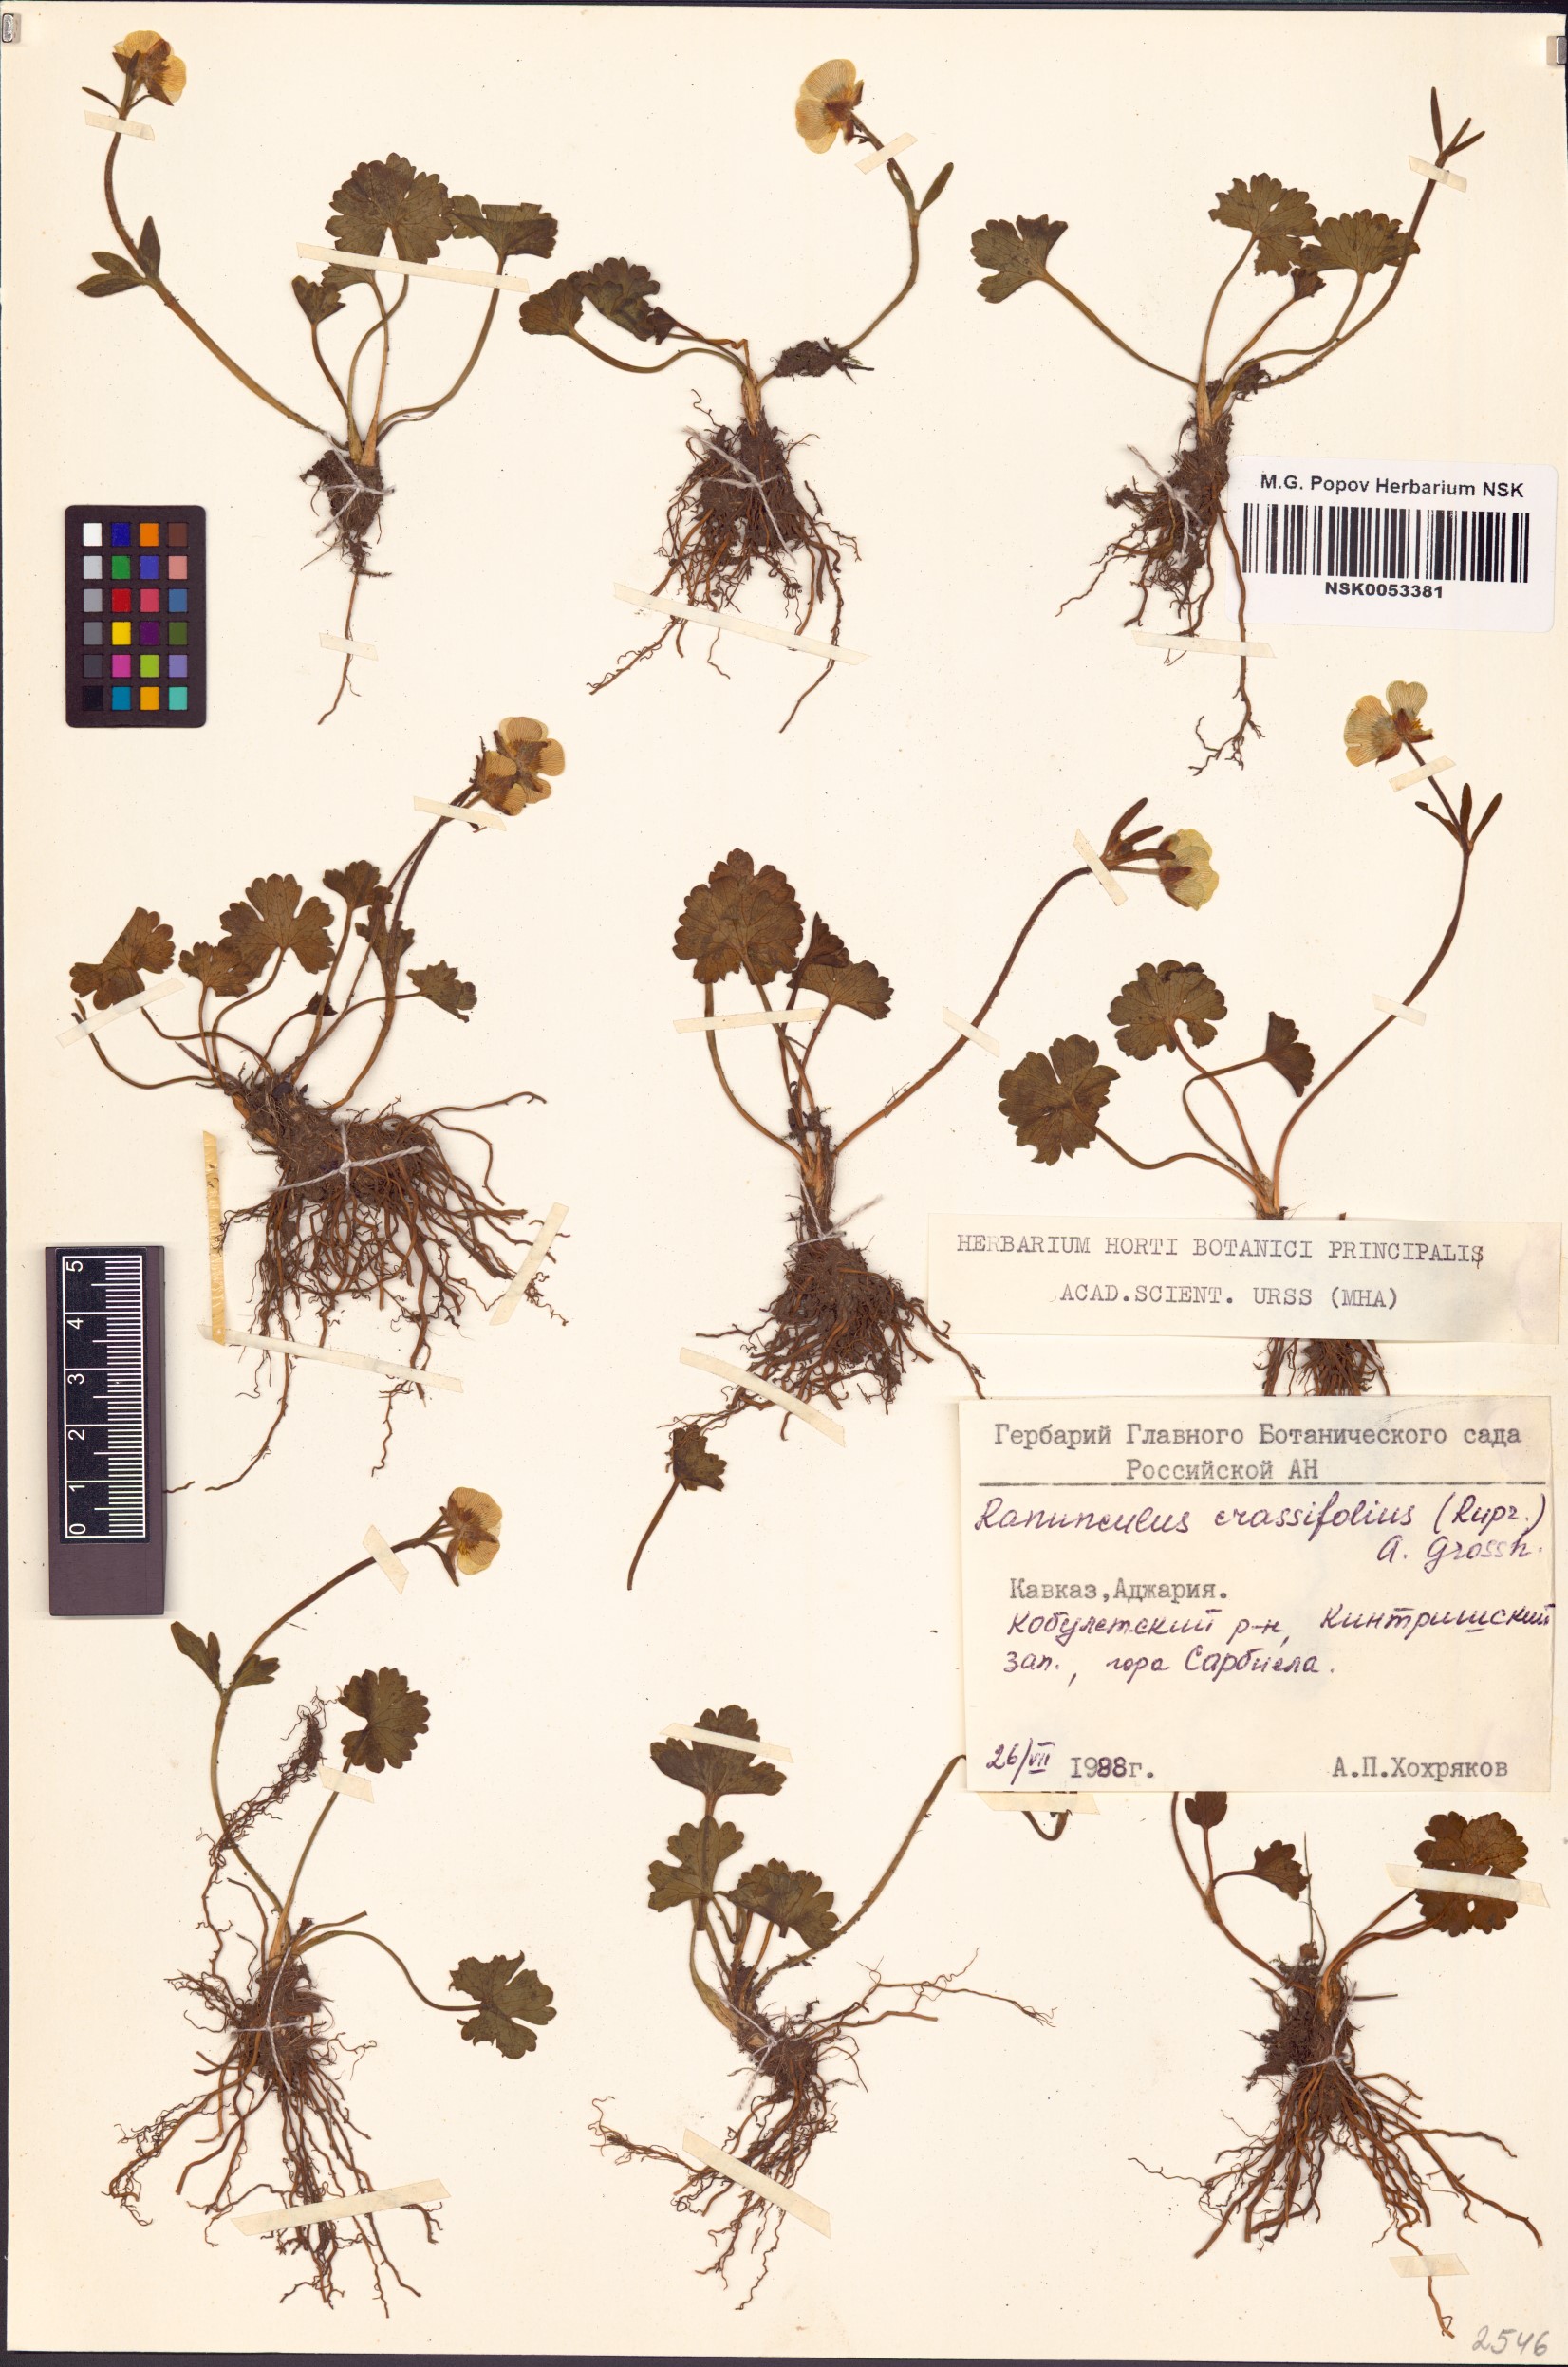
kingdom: Plantae
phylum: Tracheophyta
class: Magnoliopsida
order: Ranunculales
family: Ranunculaceae
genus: Ranunculus
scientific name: Ranunculus crassifolius
